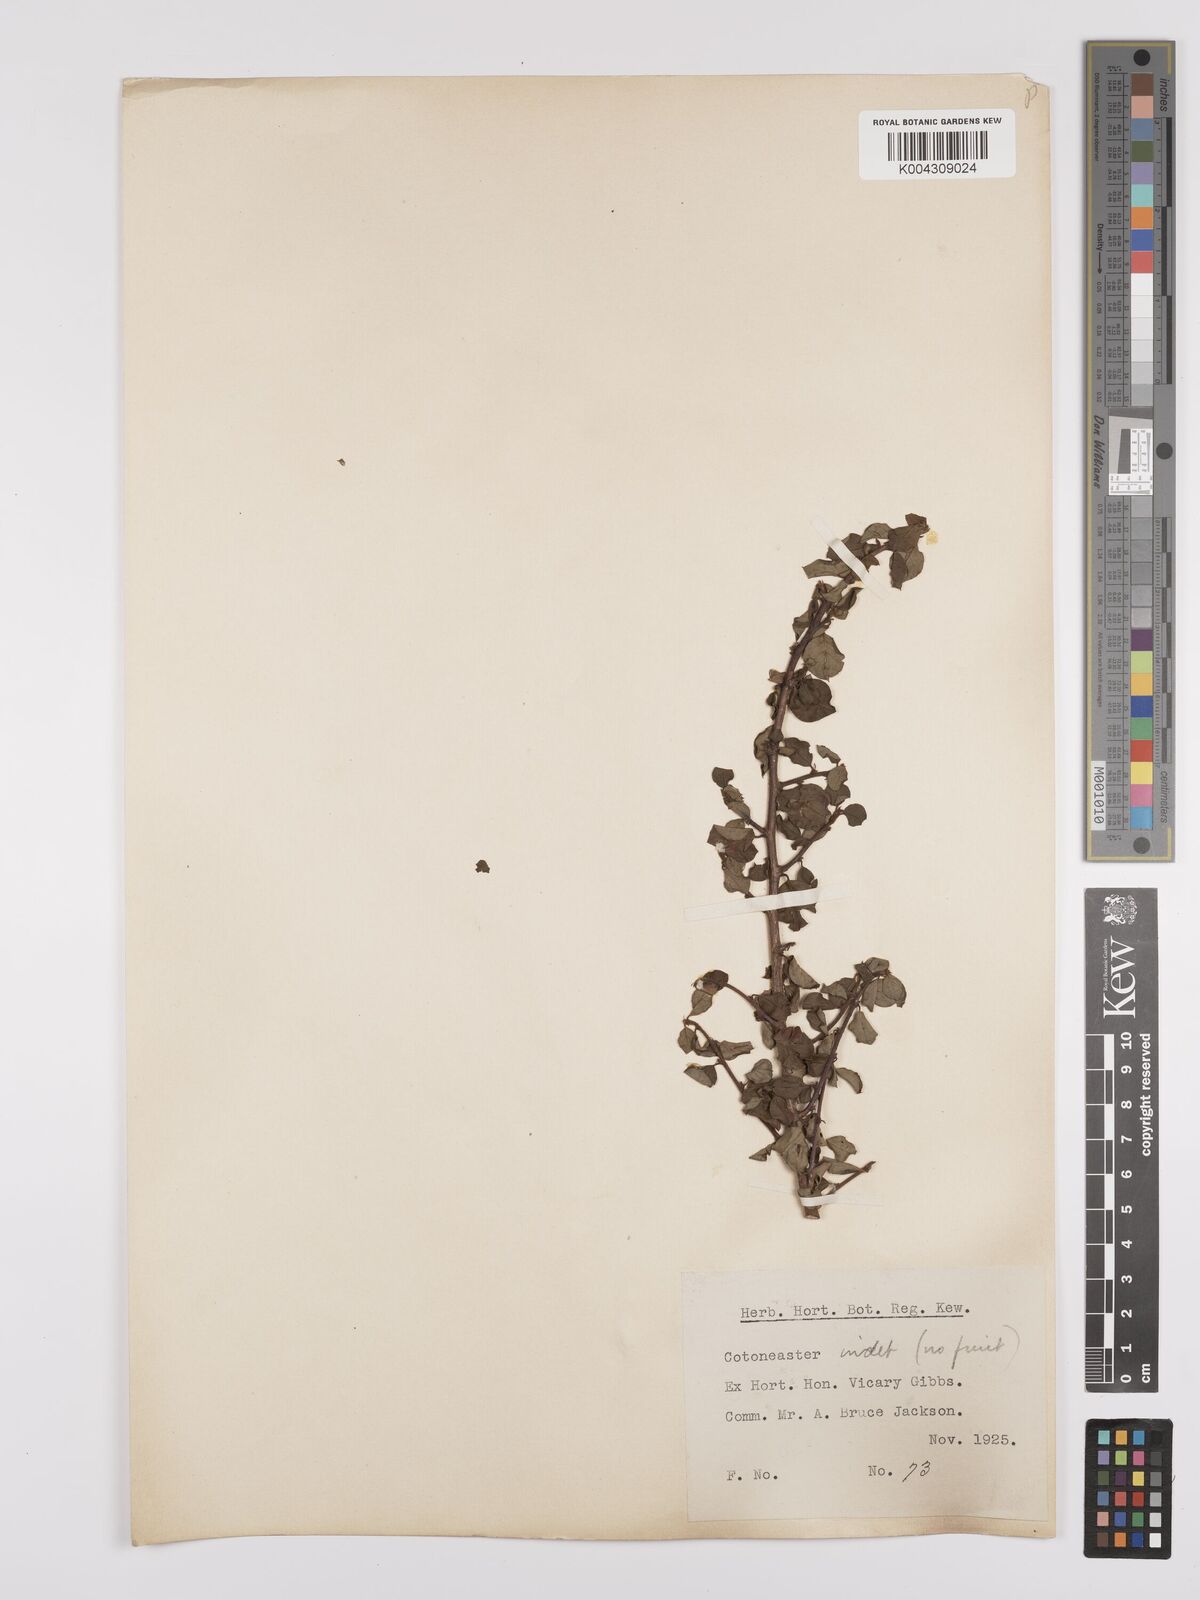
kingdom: Plantae
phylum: Tracheophyta
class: Magnoliopsida
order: Rosales
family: Rosaceae
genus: Cotoneaster
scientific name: Cotoneaster
